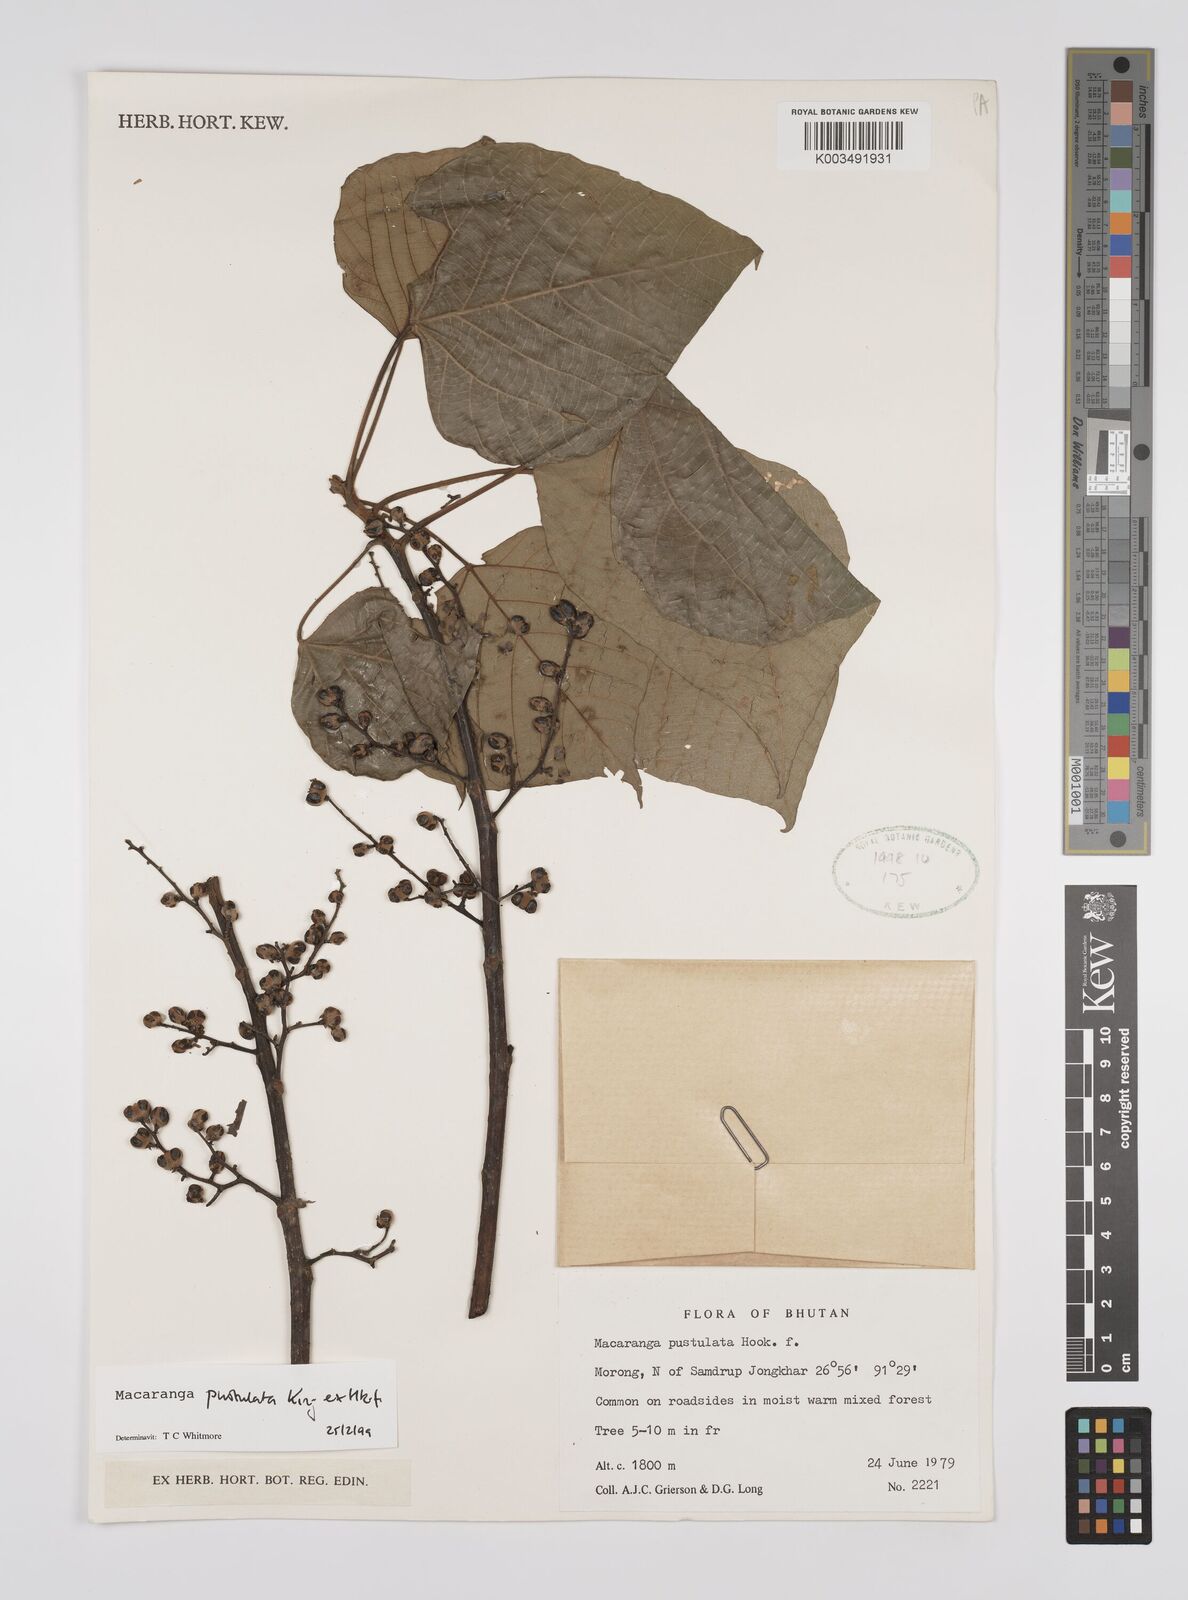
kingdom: Plantae
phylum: Tracheophyta
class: Magnoliopsida
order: Malpighiales
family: Euphorbiaceae
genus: Macaranga
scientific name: Macaranga denticulata
